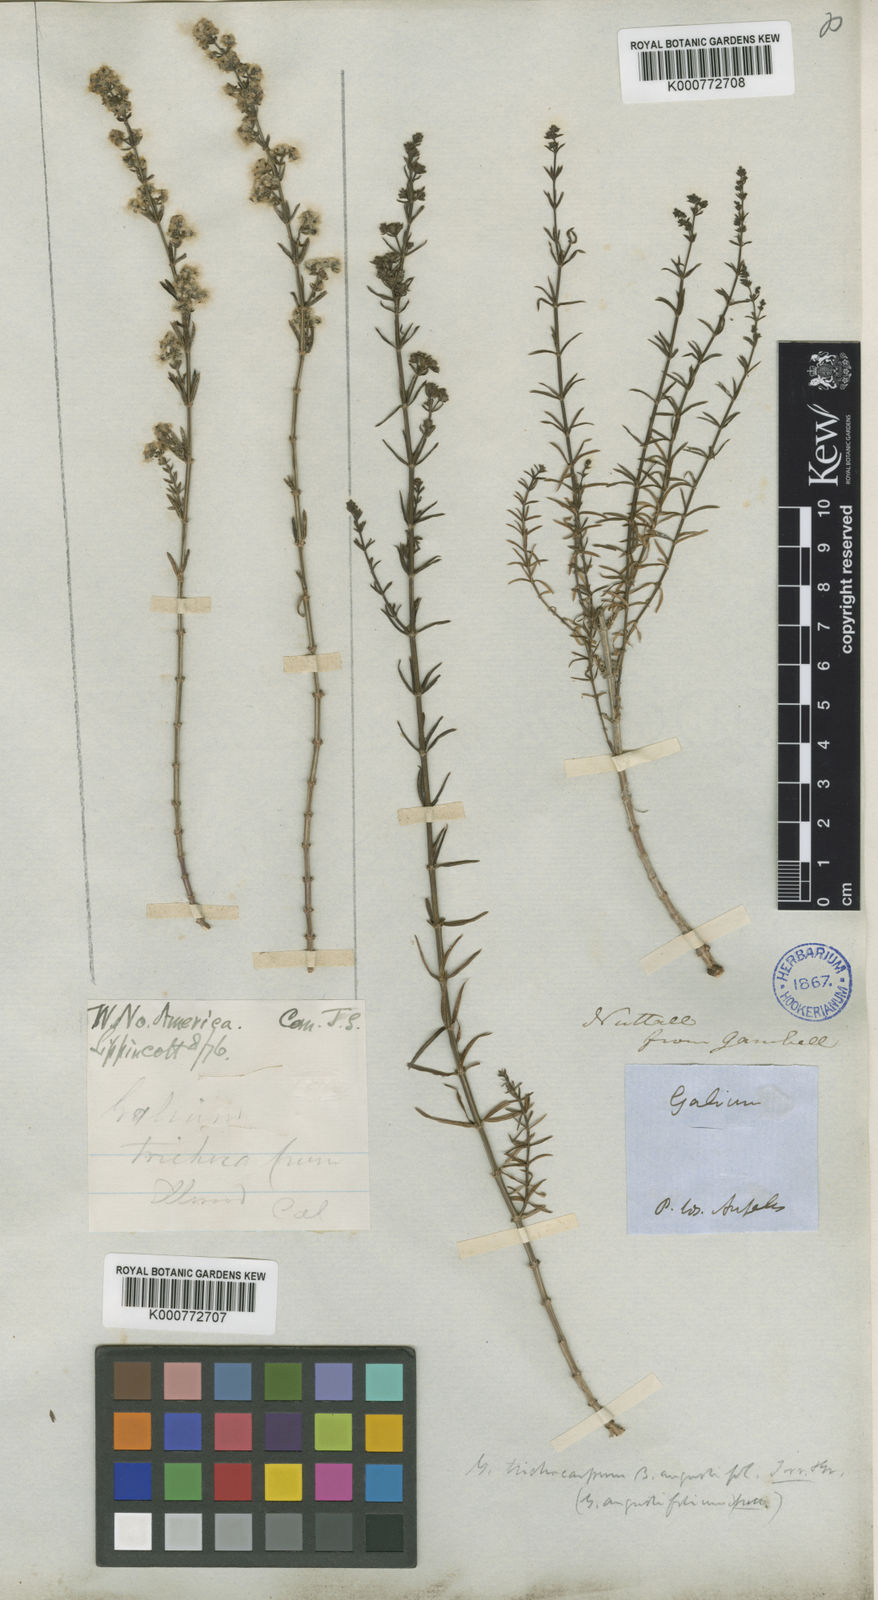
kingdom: Plantae
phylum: Tracheophyta
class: Magnoliopsida
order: Gentianales
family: Rubiaceae
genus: Galium
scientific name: Galium
